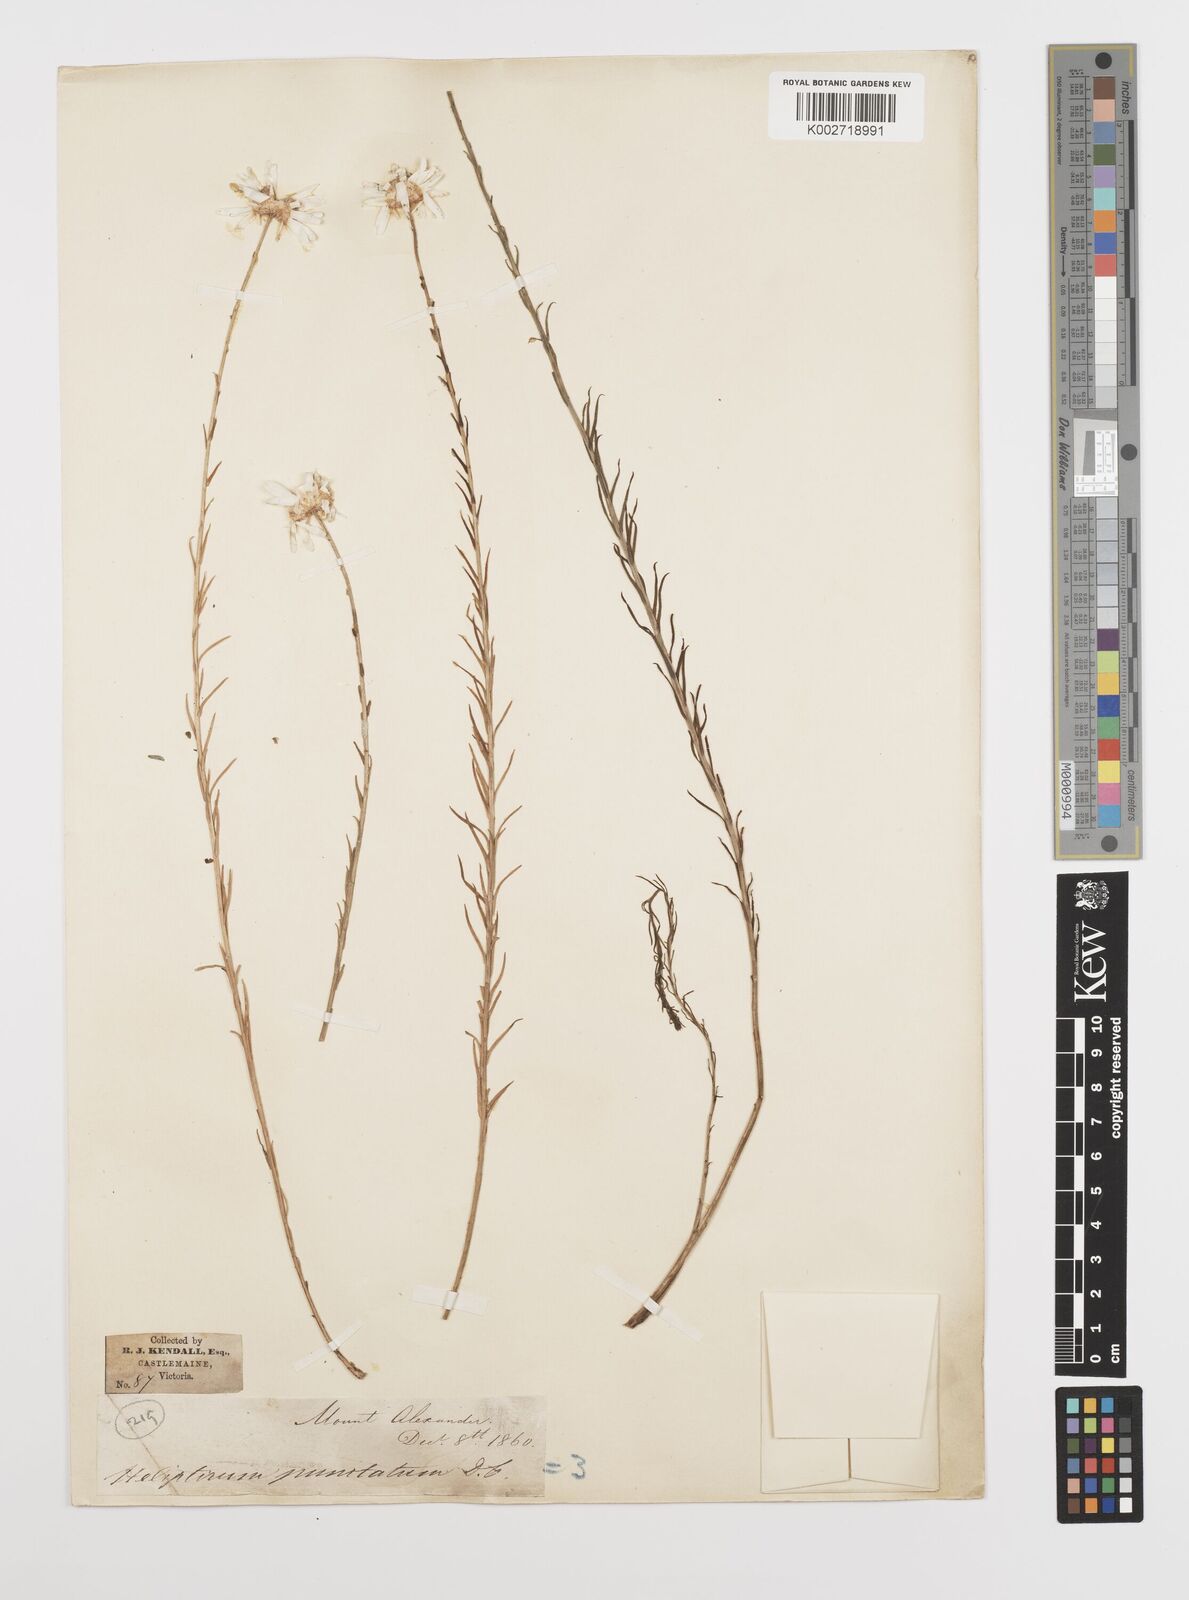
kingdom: Plantae
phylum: Tracheophyta
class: Magnoliopsida
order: Asterales
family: Asteraceae
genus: Rhodanthe
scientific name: Rhodanthe anthemoides
